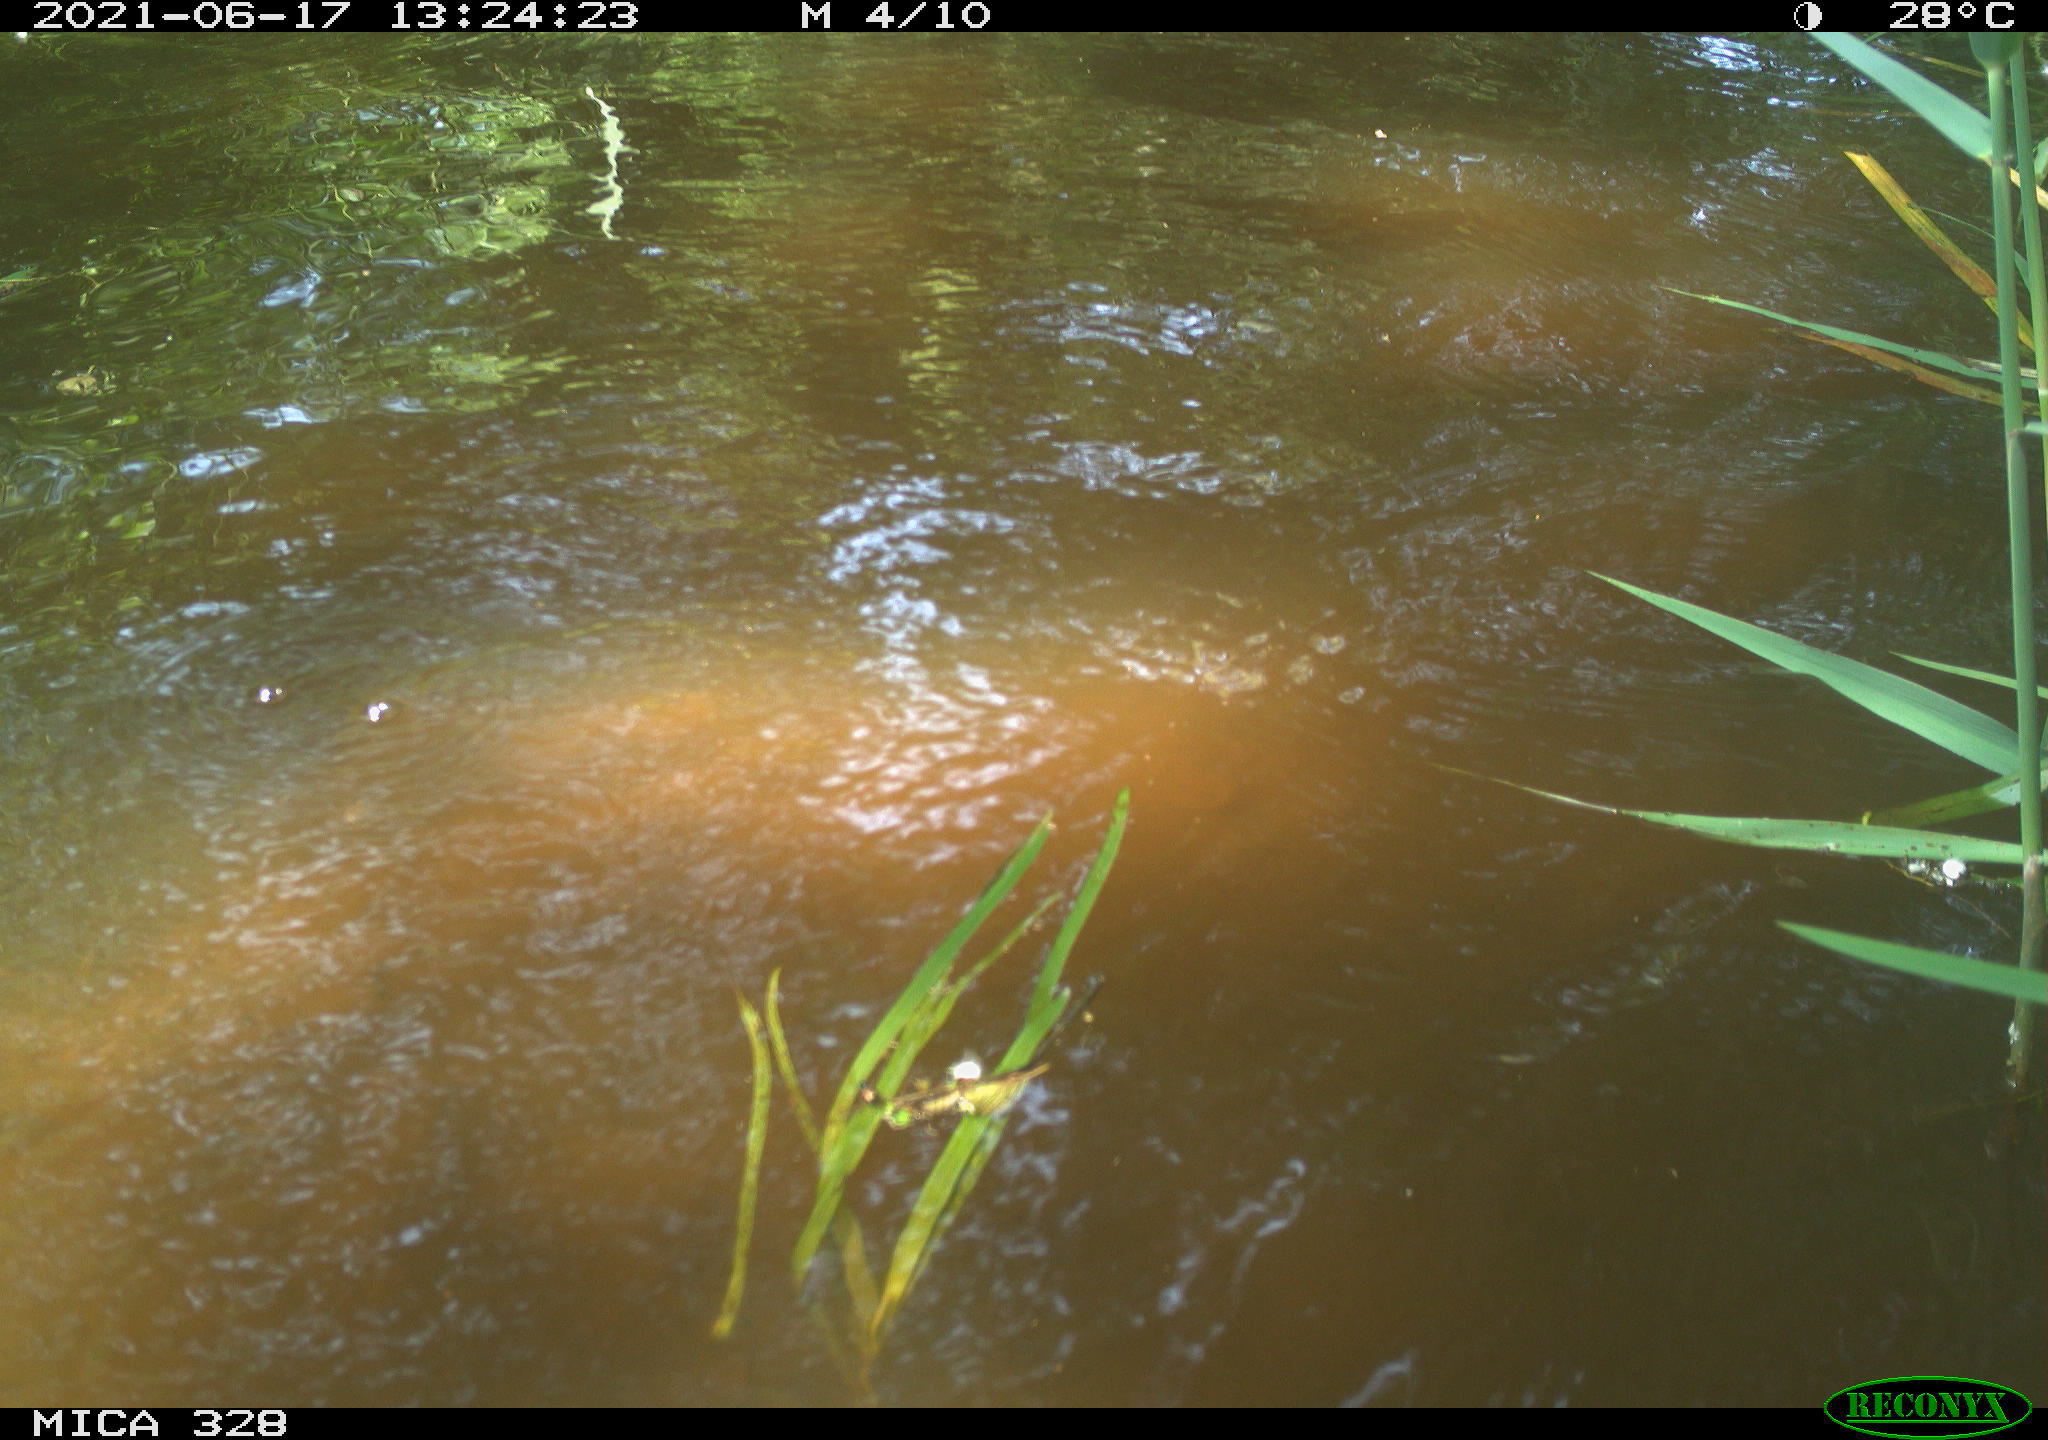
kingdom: Animalia
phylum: Chordata
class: Mammalia
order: Rodentia
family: Cricetidae
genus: Ondatra
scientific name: Ondatra zibethicus
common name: Muskrat
